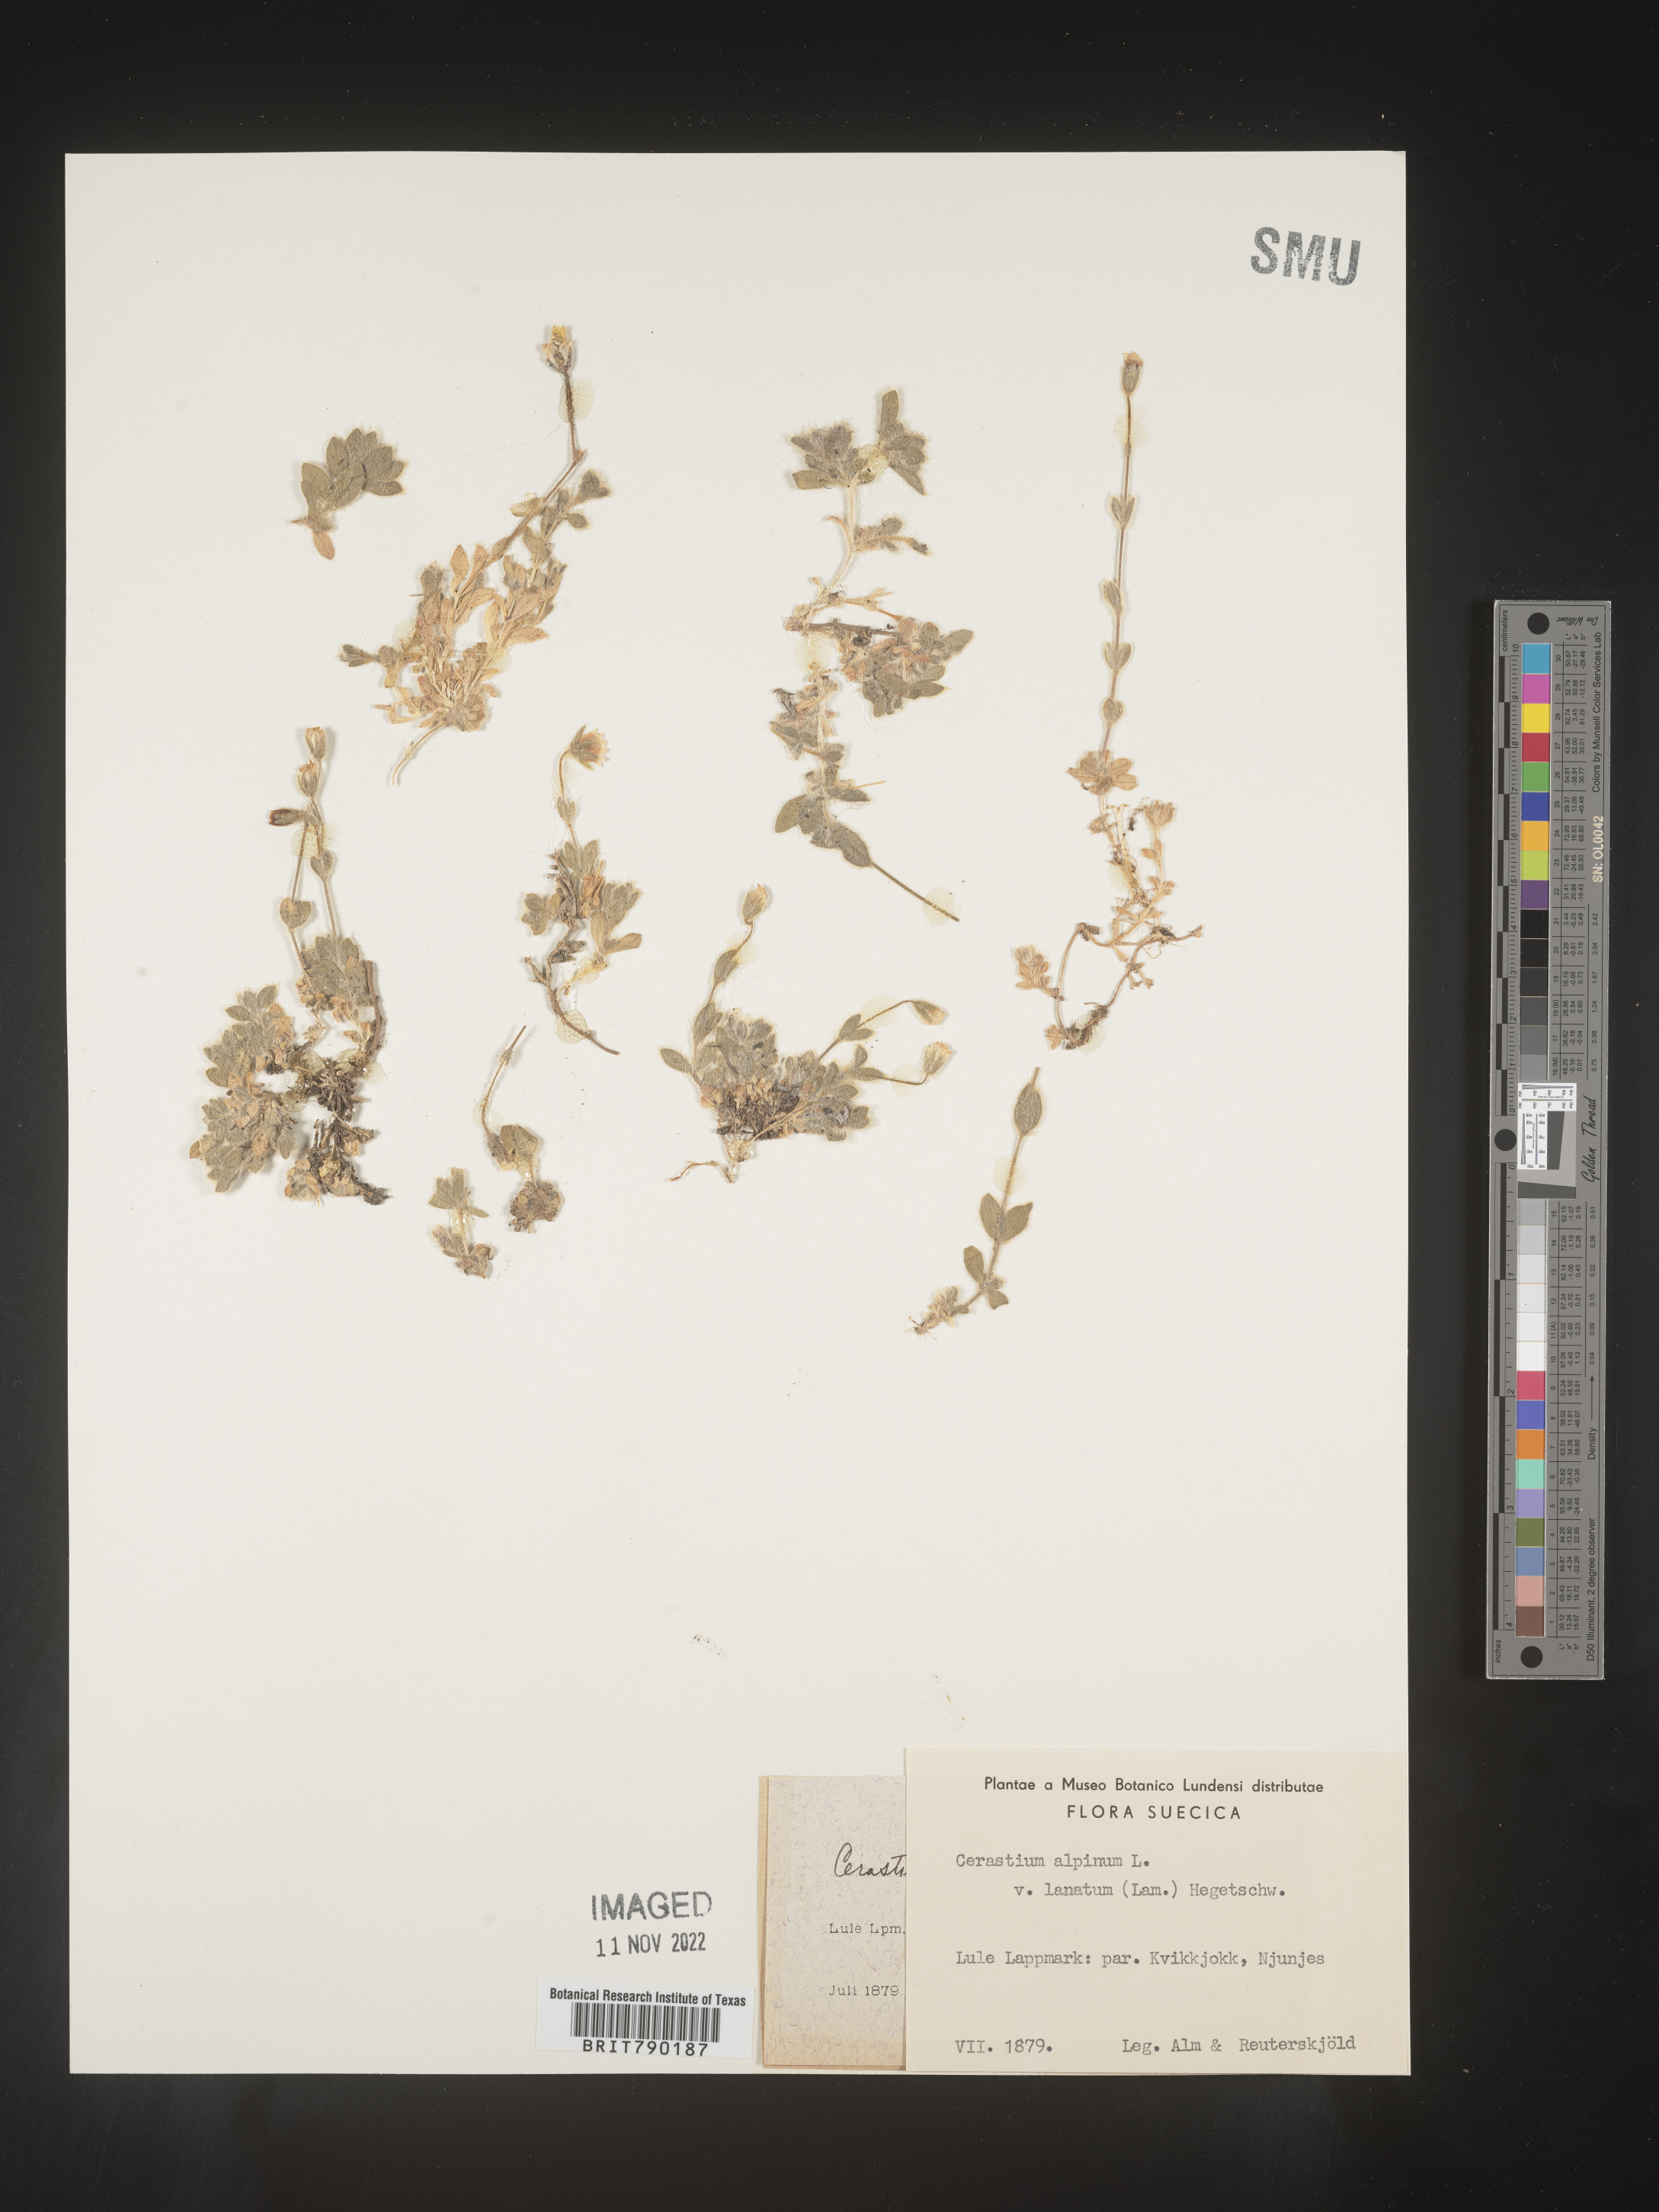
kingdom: Plantae
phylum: Tracheophyta
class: Magnoliopsida
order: Caryophyllales
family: Caryophyllaceae
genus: Cerastium
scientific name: Cerastium
